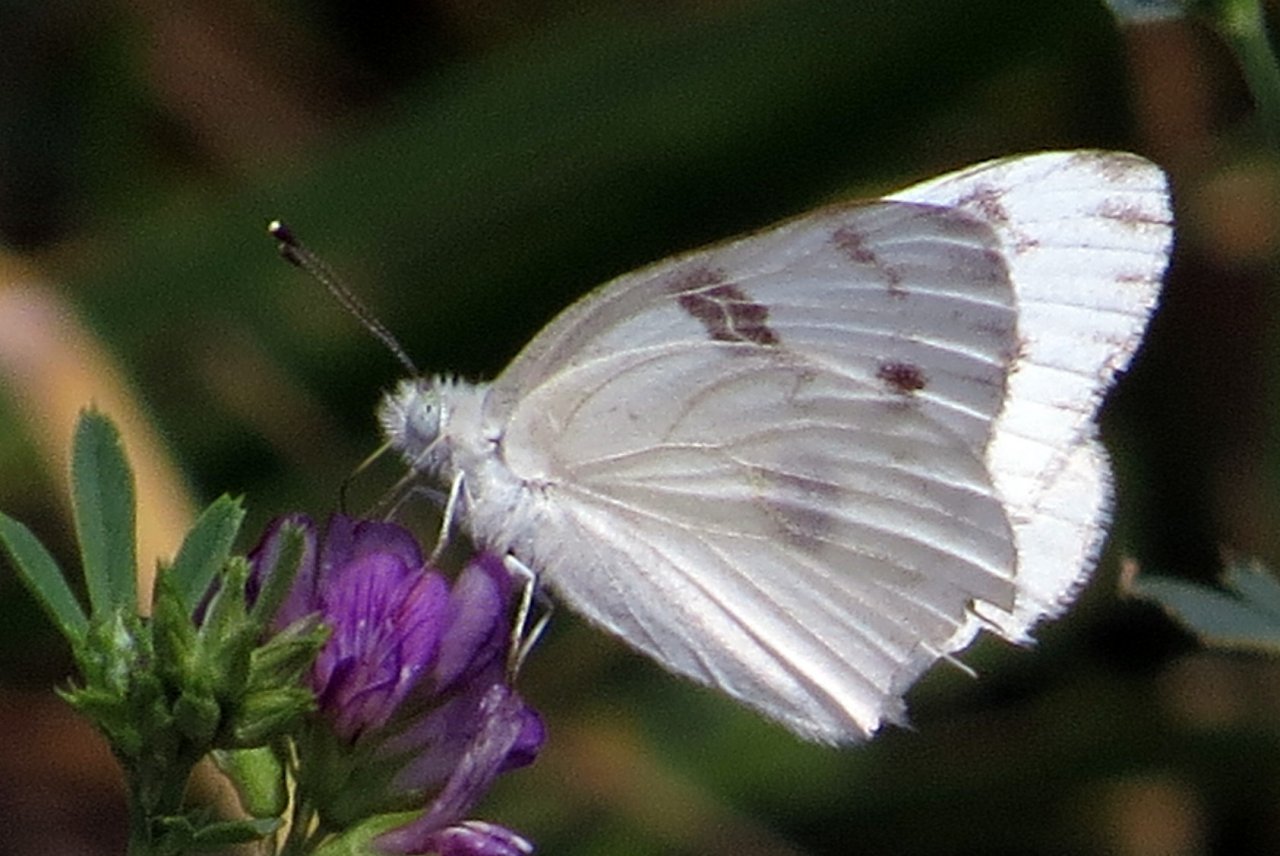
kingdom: Animalia
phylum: Arthropoda
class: Insecta
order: Lepidoptera
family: Pieridae
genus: Pontia
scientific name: Pontia protodice
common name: Checkered White
